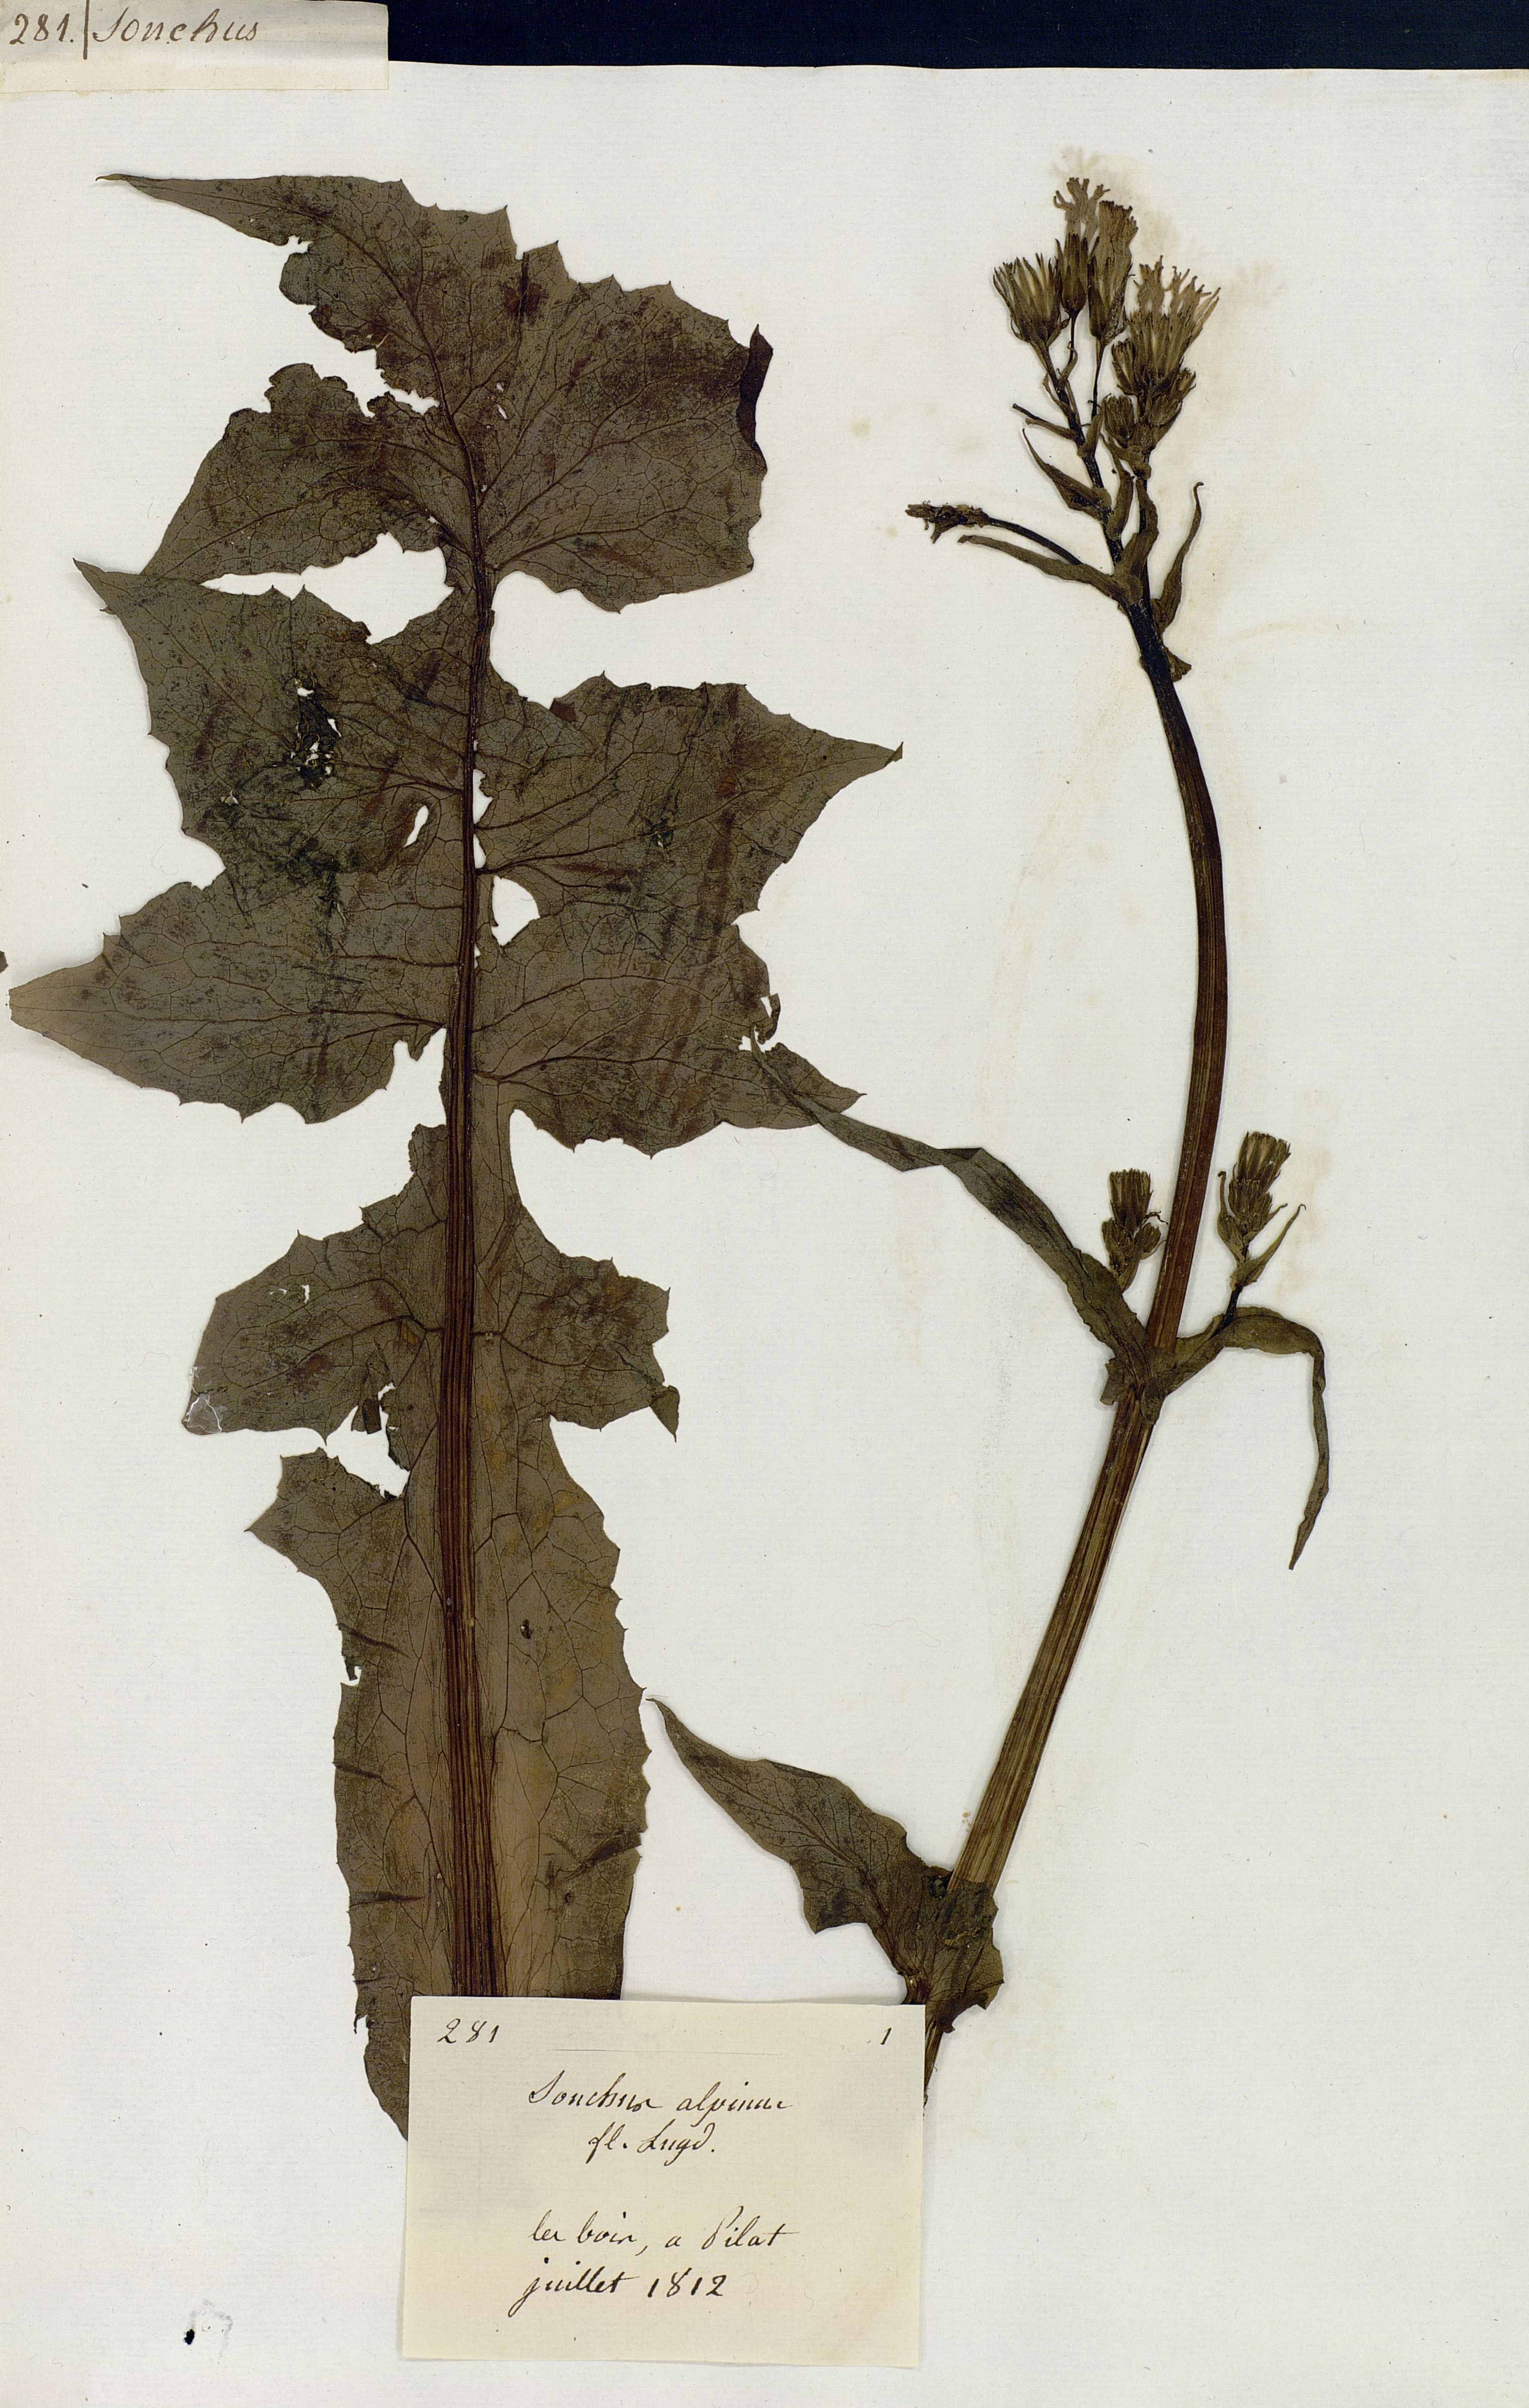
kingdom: Plantae
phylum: Tracheophyta
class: Magnoliopsida
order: Asterales
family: Asteraceae
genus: Cicerbita
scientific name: Cicerbita alpina
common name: Alpine blue-sow-thistle
